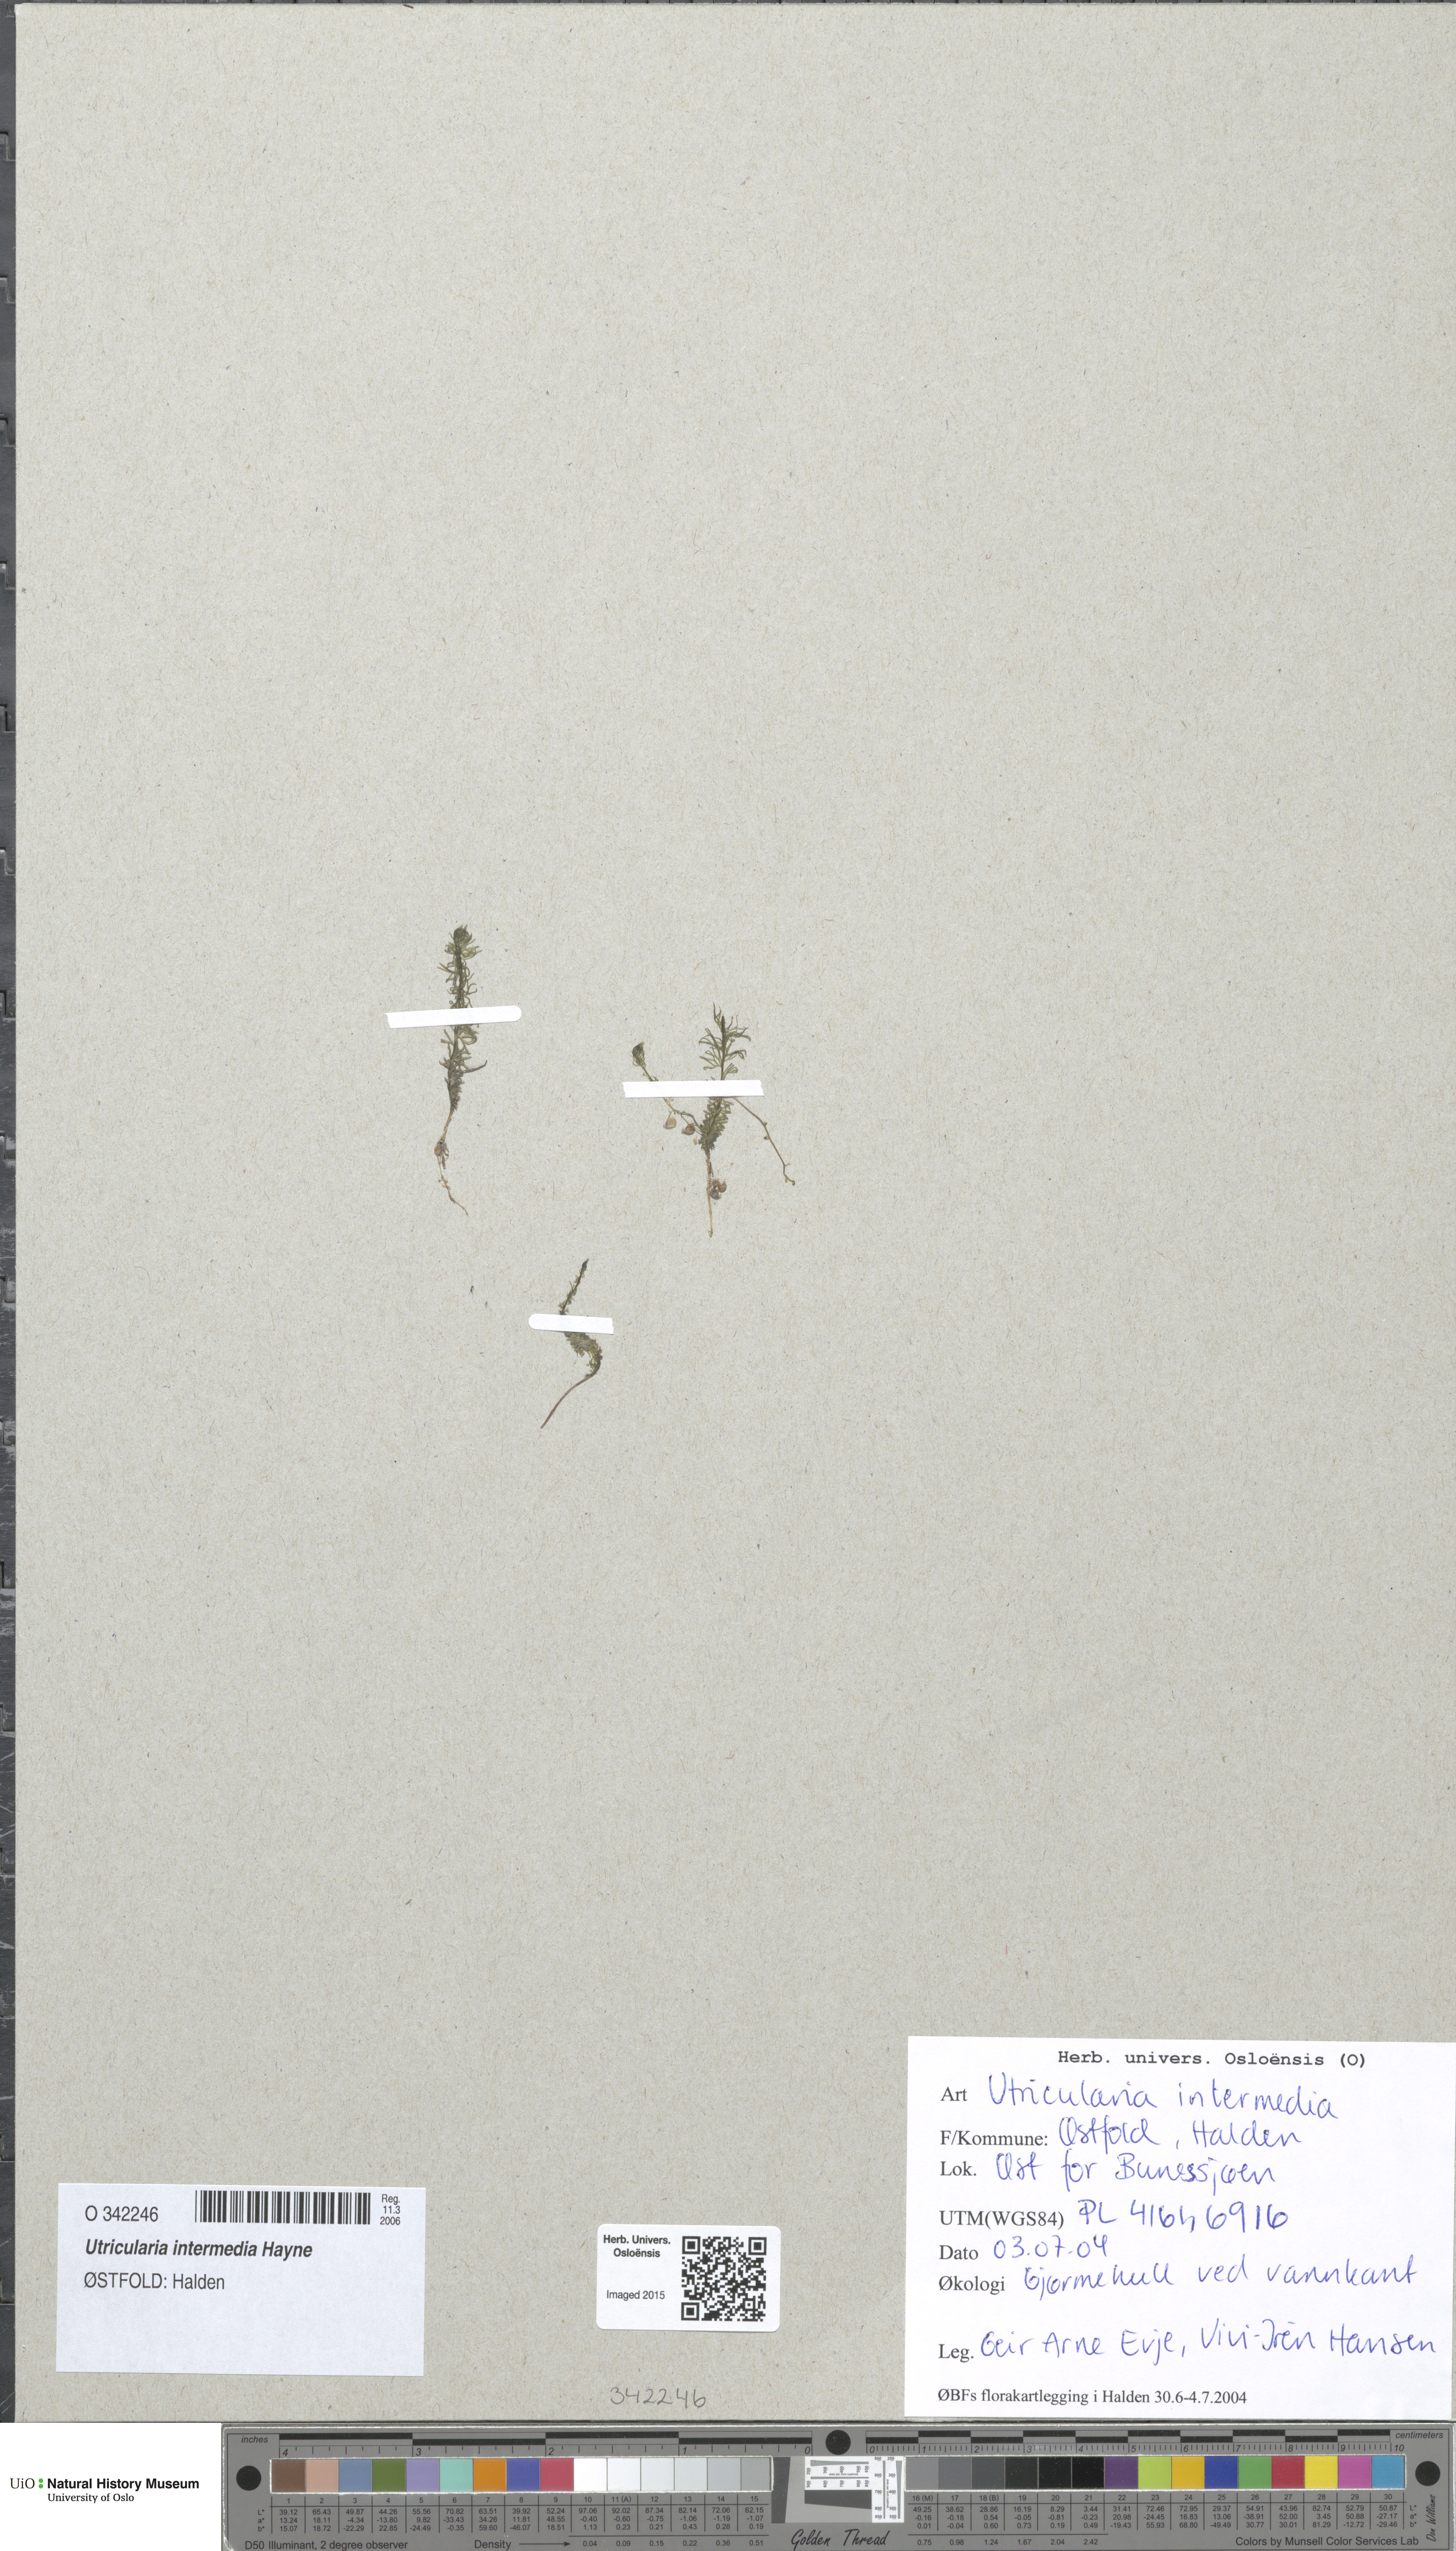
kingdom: Plantae
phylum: Tracheophyta
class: Magnoliopsida
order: Lamiales
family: Lentibulariaceae
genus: Utricularia
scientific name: Utricularia intermedia
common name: Intermediate bladderwort
